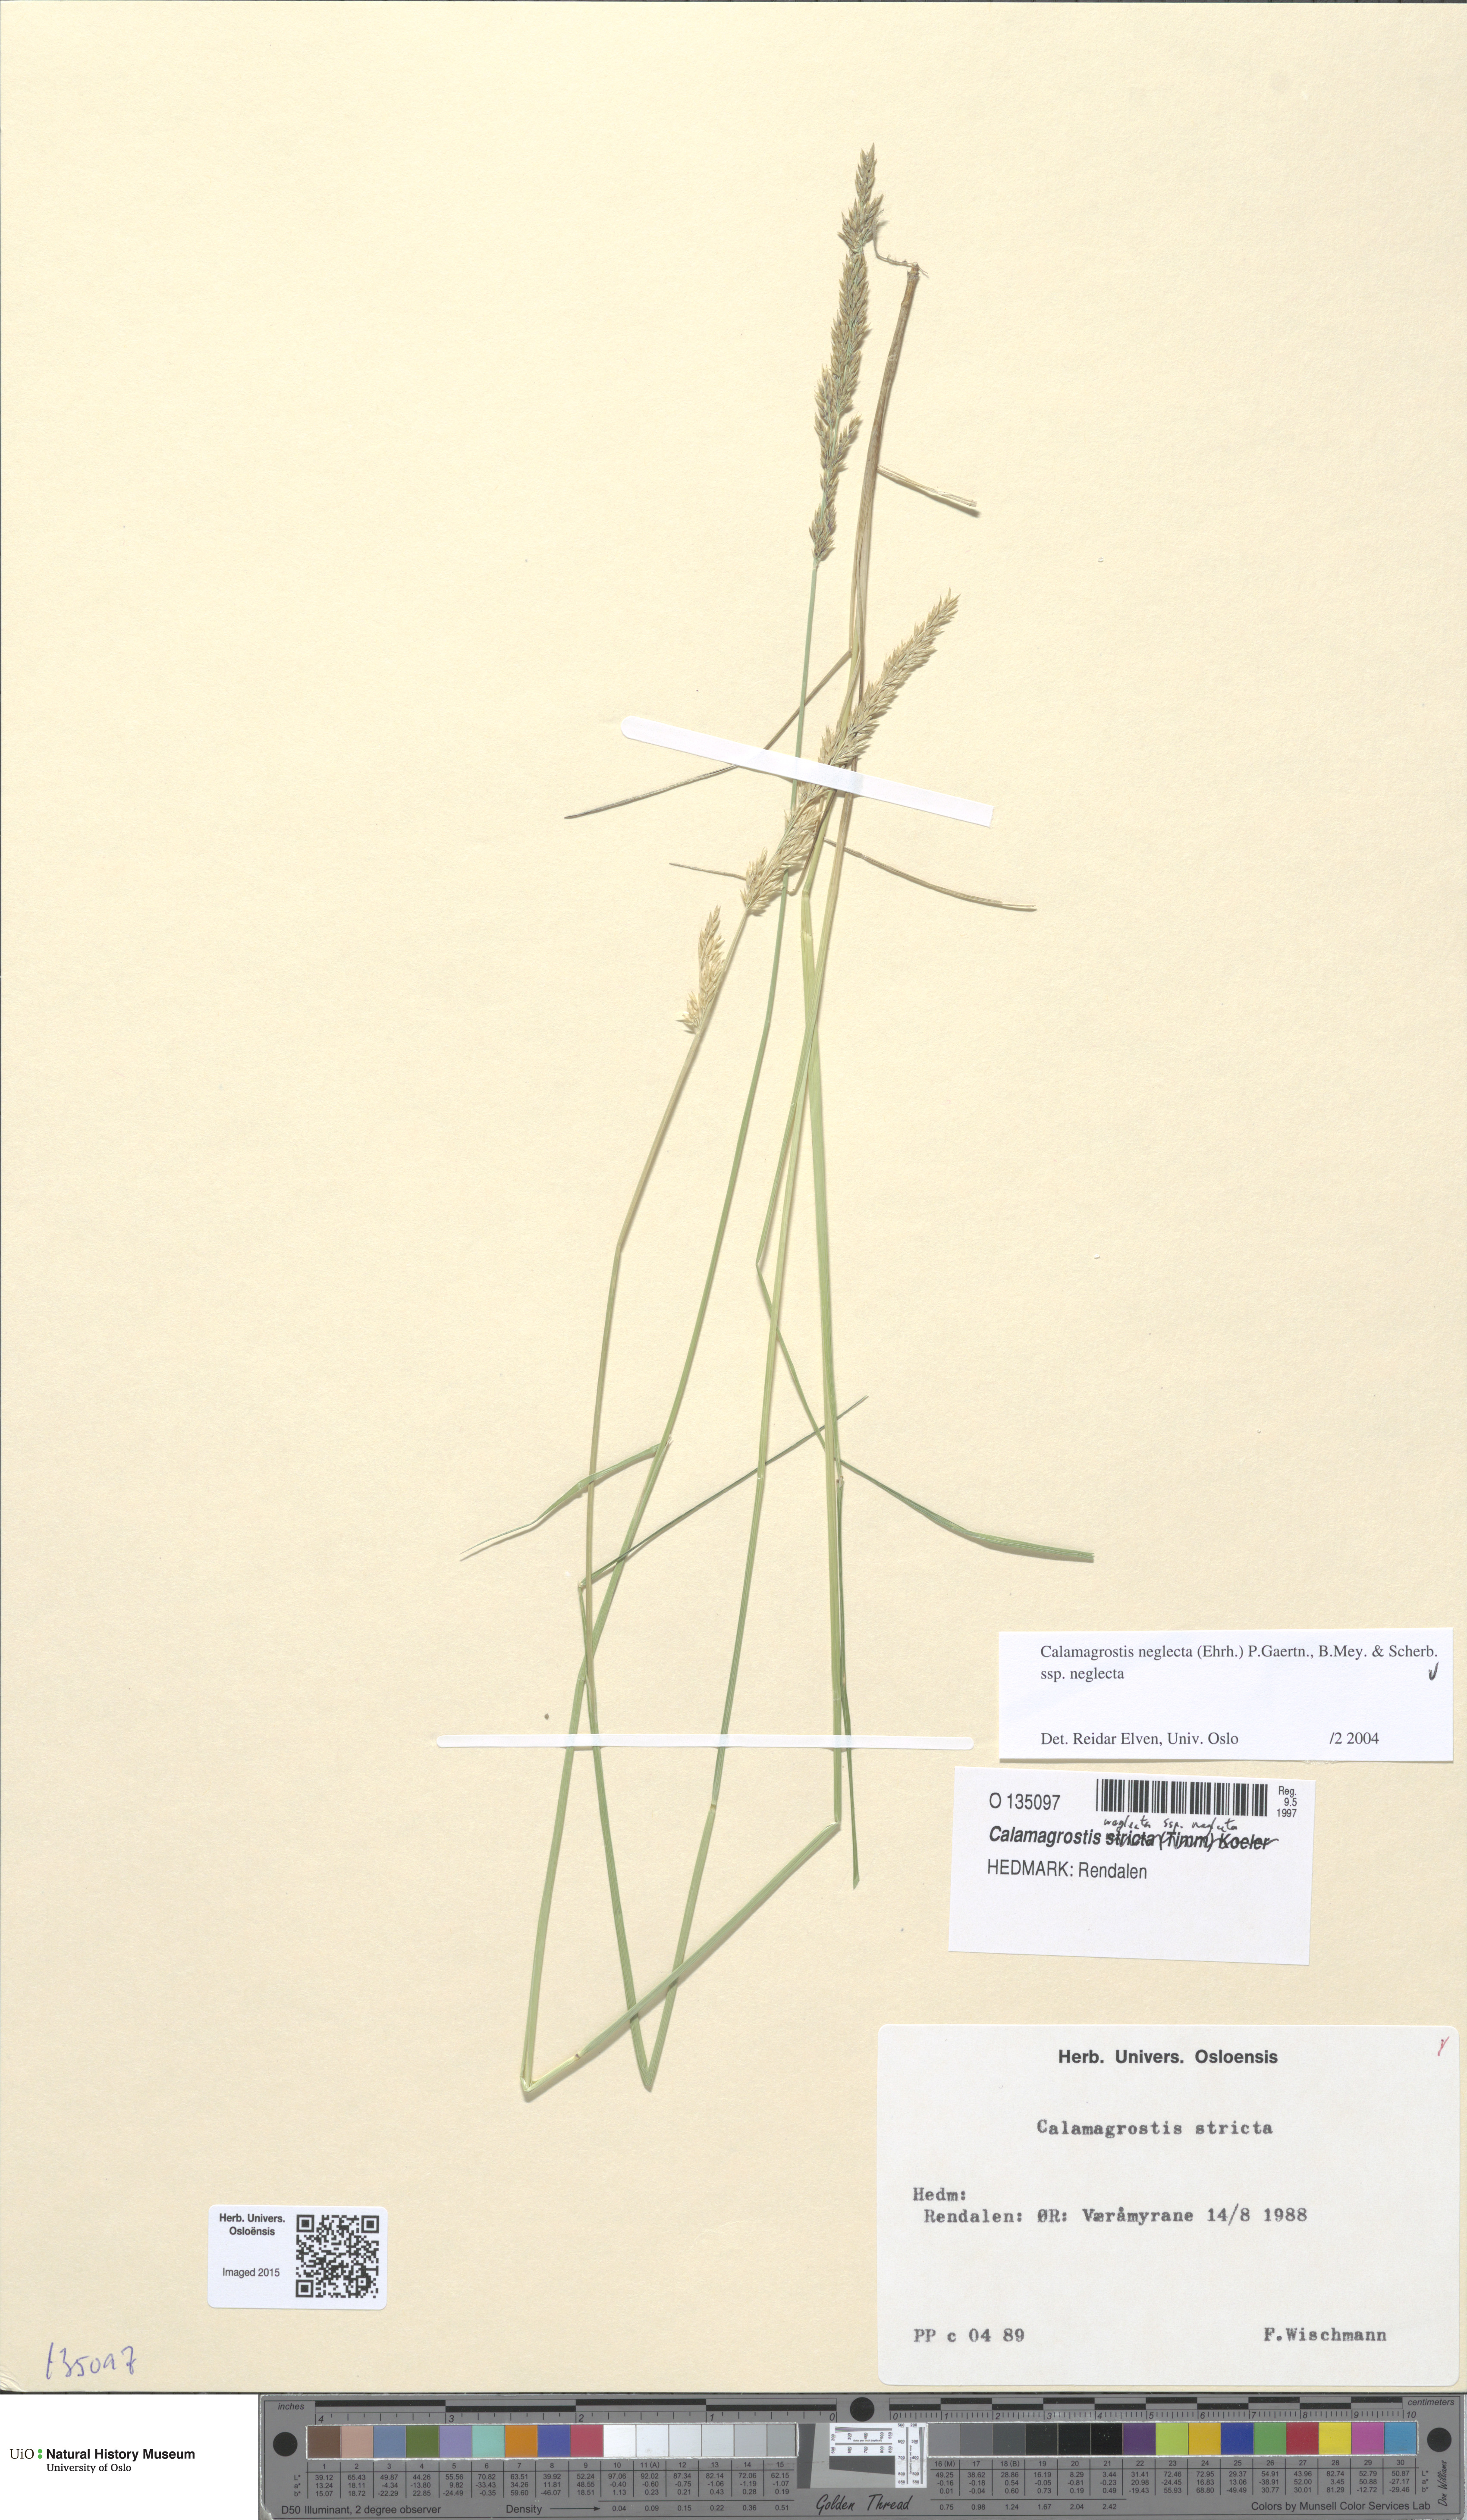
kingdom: Plantae
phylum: Tracheophyta
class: Liliopsida
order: Poales
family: Poaceae
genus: Achnatherum
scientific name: Achnatherum calamagrostis
